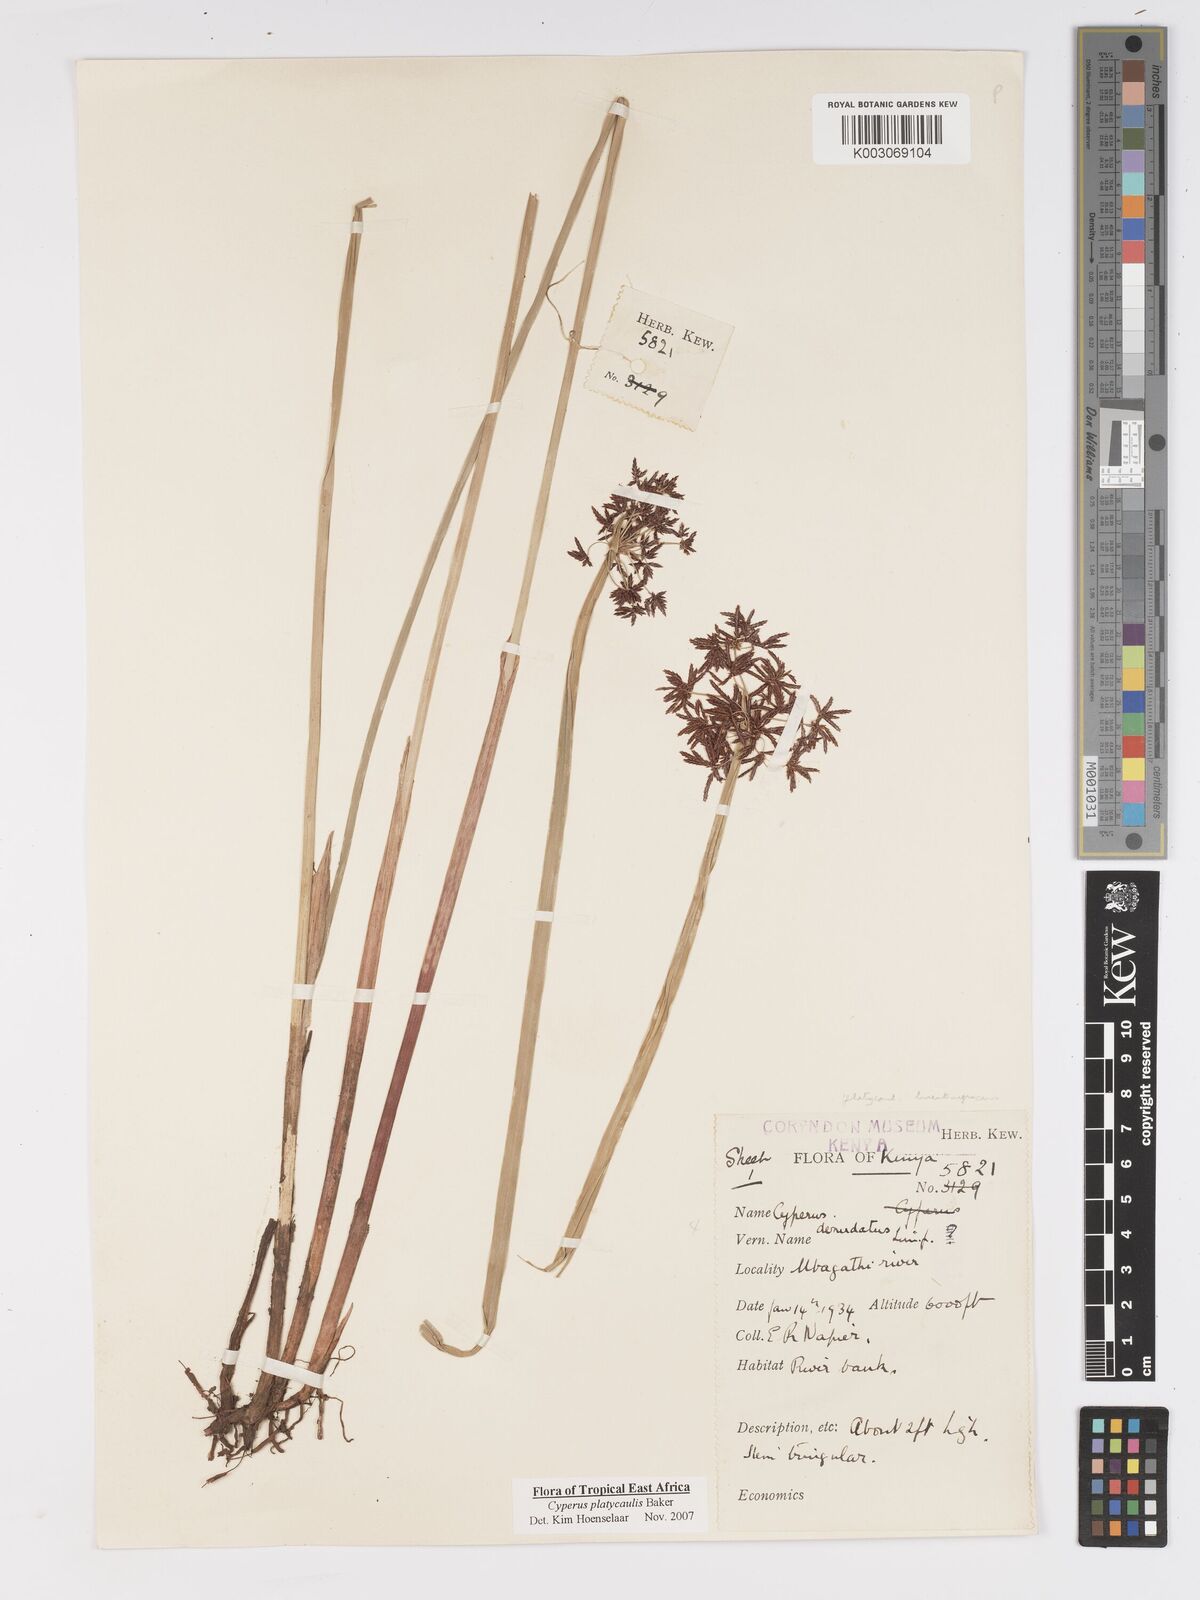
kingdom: Plantae
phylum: Tracheophyta
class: Liliopsida
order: Poales
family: Cyperaceae
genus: Cyperus
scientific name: Cyperus platycaulis
